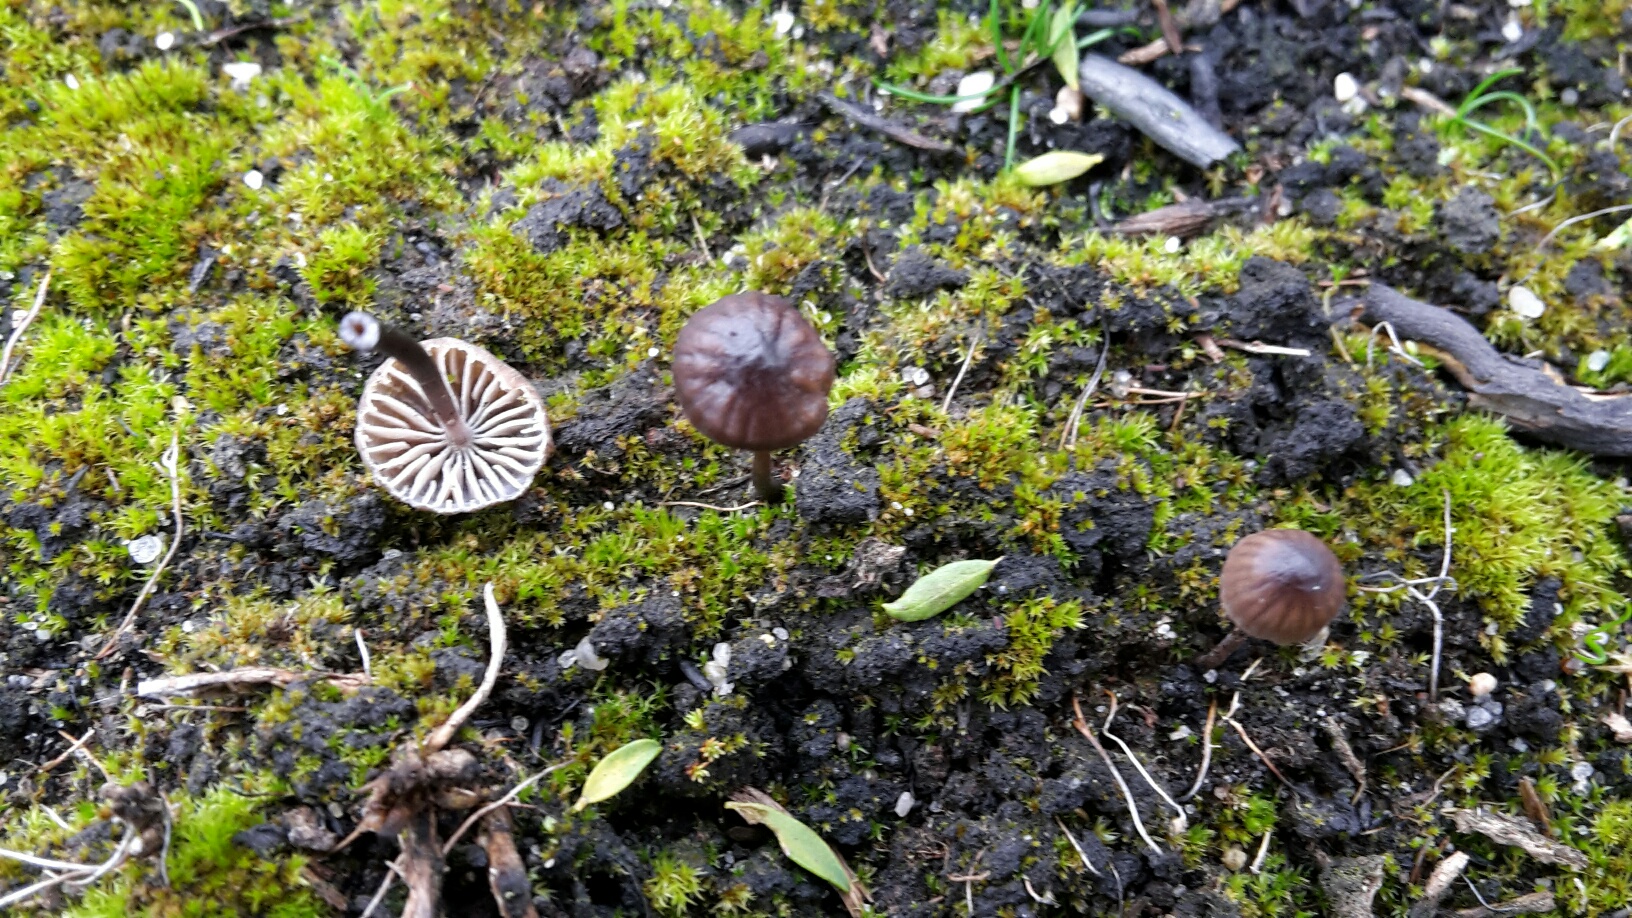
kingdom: Fungi
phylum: Basidiomycota
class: Agaricomycetes
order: Agaricales
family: Mycenaceae
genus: Mycena
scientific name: Mycena galopus
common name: hvidmælket huesvamp
